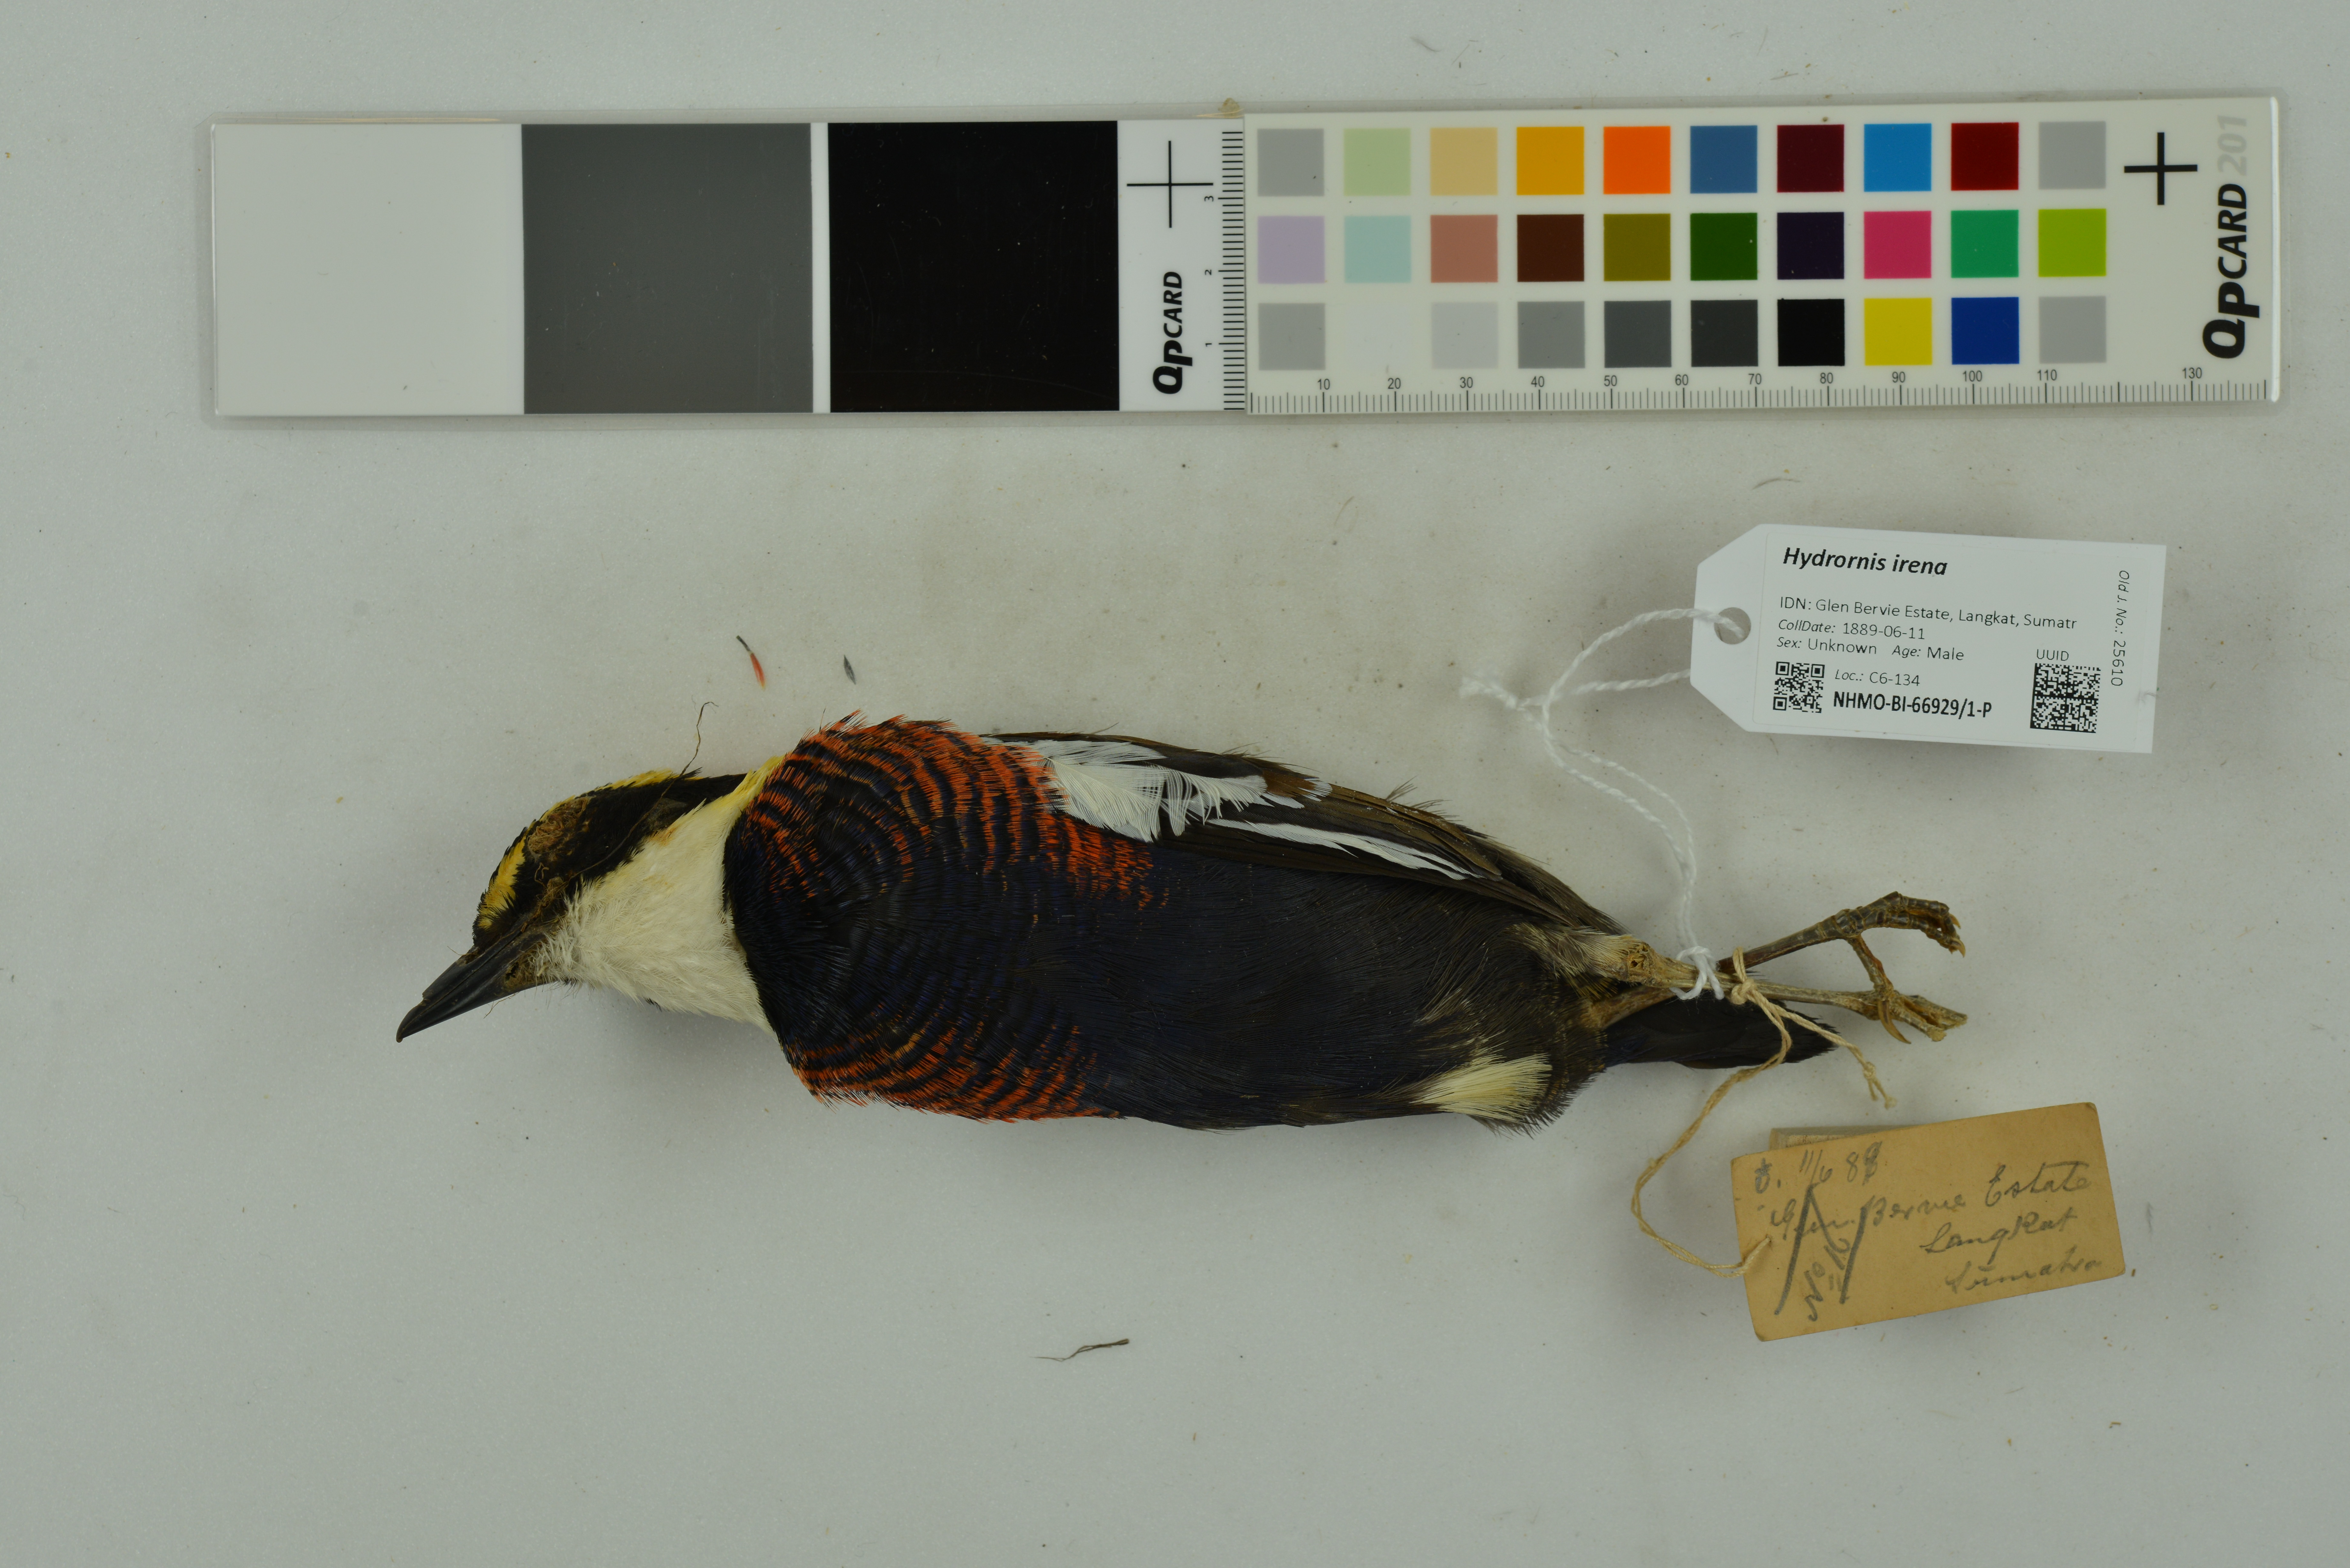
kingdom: Animalia
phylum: Chordata
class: Aves
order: Passeriformes
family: Pittidae
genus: Hydrornis
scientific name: Hydrornis irena
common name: Malayan banded pitta
